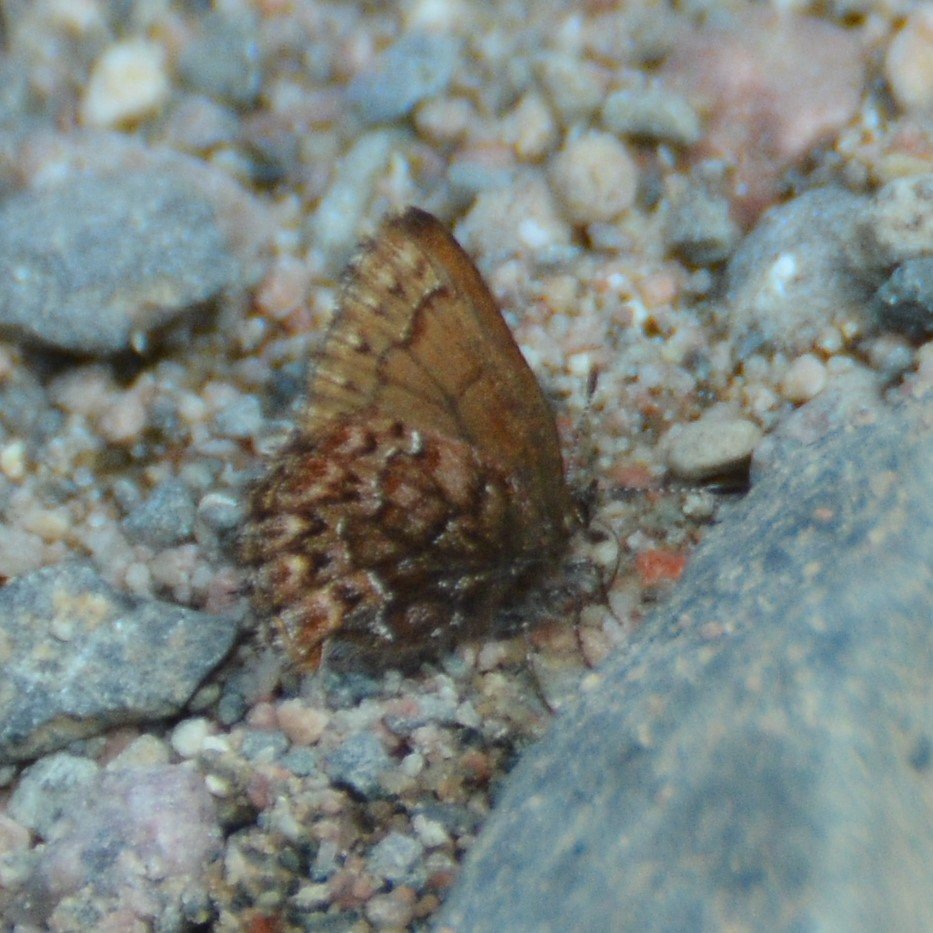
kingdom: Animalia
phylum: Arthropoda
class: Insecta
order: Lepidoptera
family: Lycaenidae
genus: Incisalia
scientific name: Incisalia eryphon
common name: Western Pine Elfin
